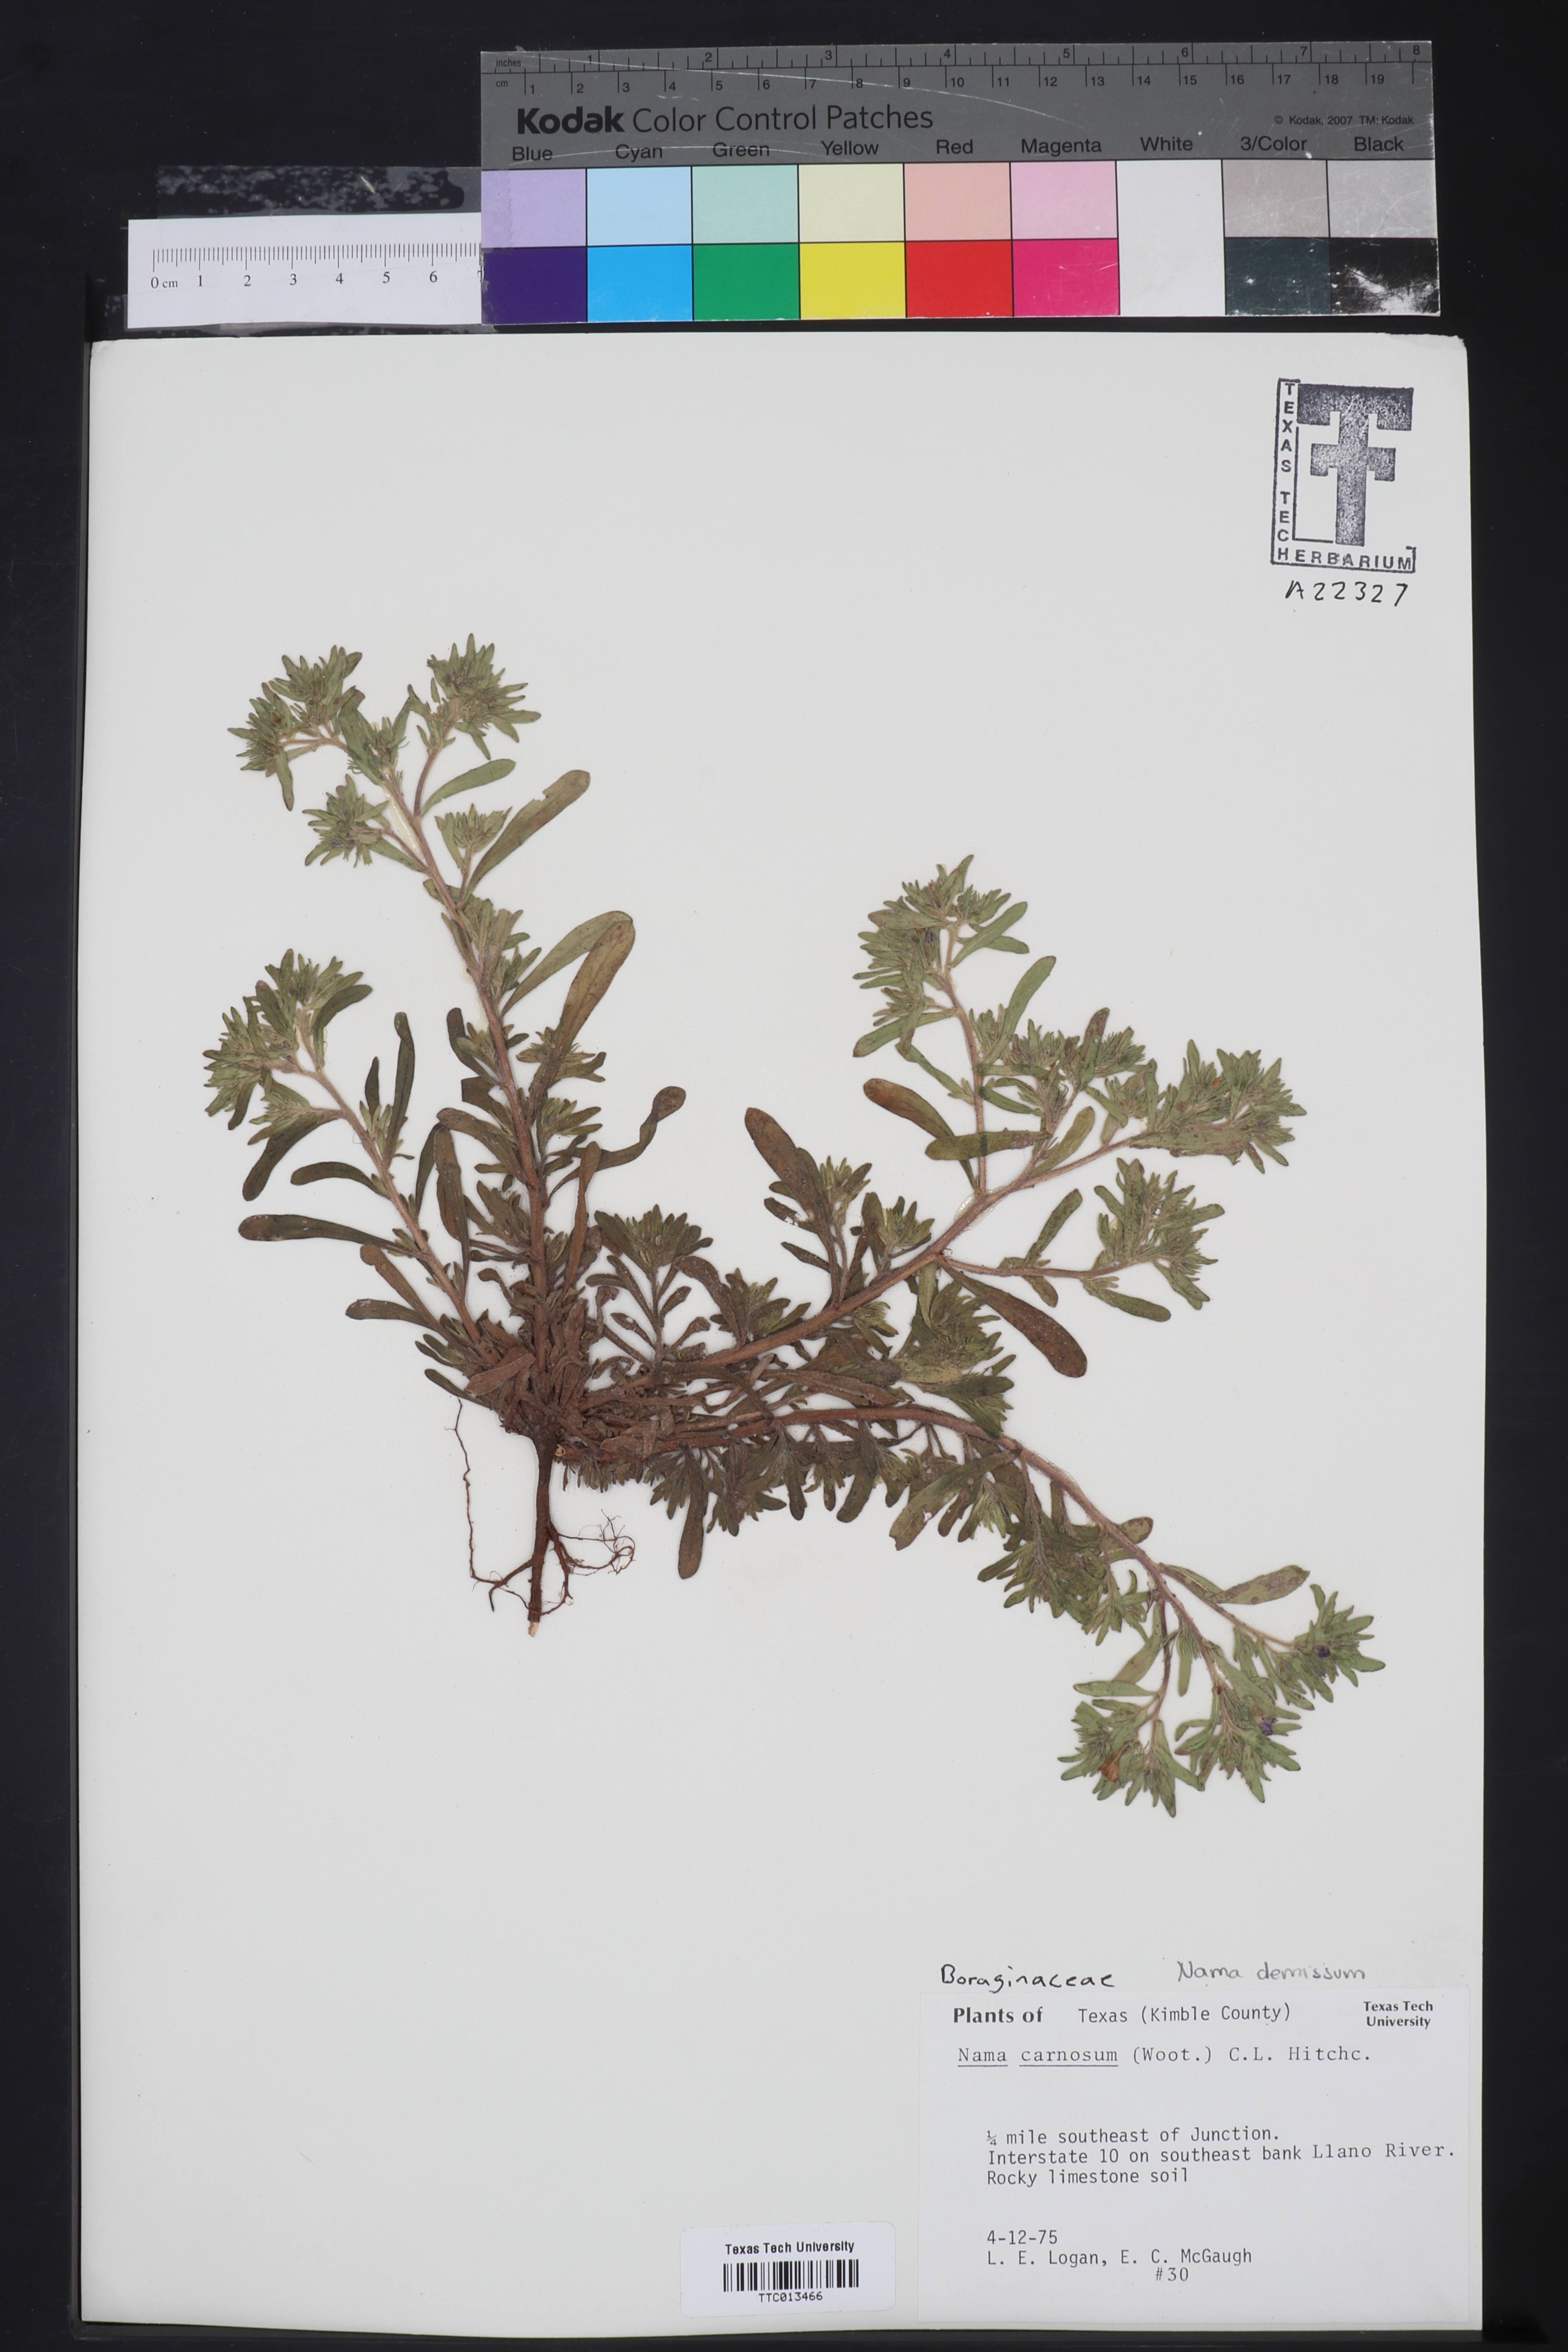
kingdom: Plantae
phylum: Tracheophyta
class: Magnoliopsida
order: Boraginales
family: Namaceae
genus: Andropus
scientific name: Andropus carnosus
